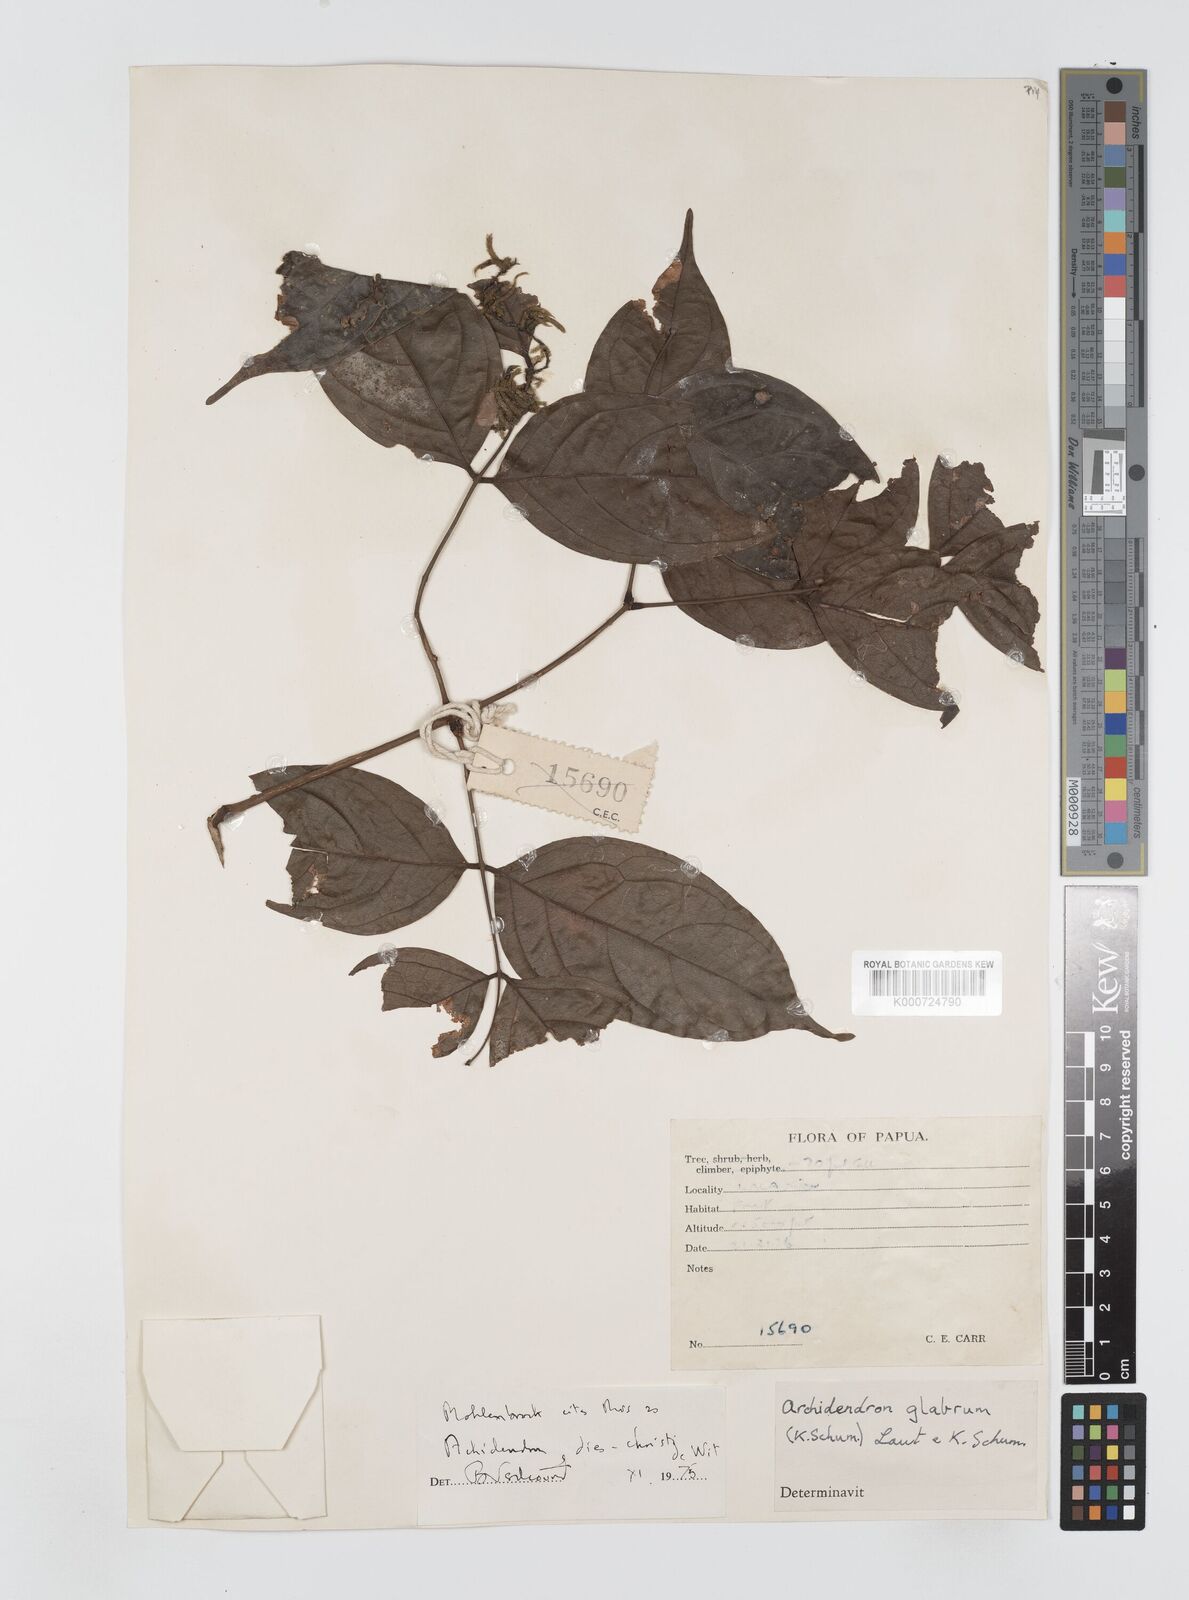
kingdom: Plantae
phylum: Tracheophyta
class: Magnoliopsida
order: Fabales
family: Fabaceae
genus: Archidendron
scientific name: Archidendron glabrum
